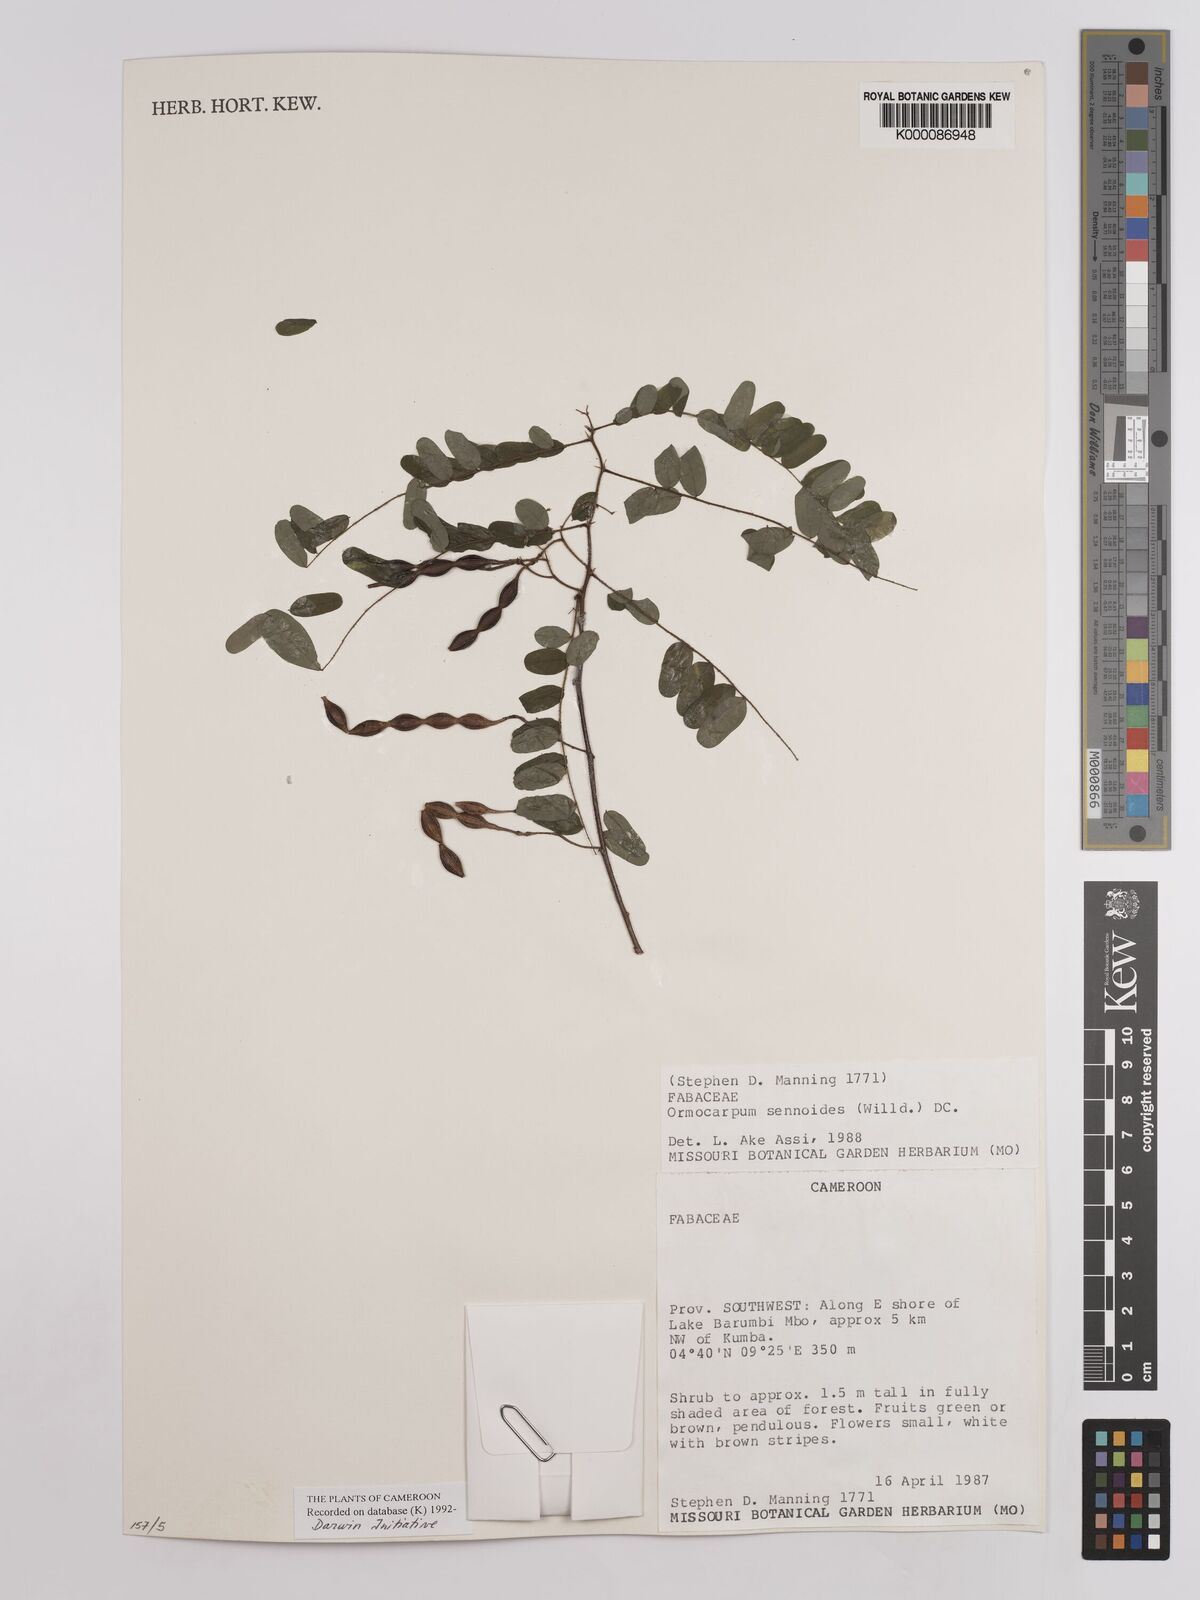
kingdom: Plantae
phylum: Tracheophyta
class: Magnoliopsida
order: Fabales
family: Fabaceae
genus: Ormocarpum
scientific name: Ormocarpum sennoides
